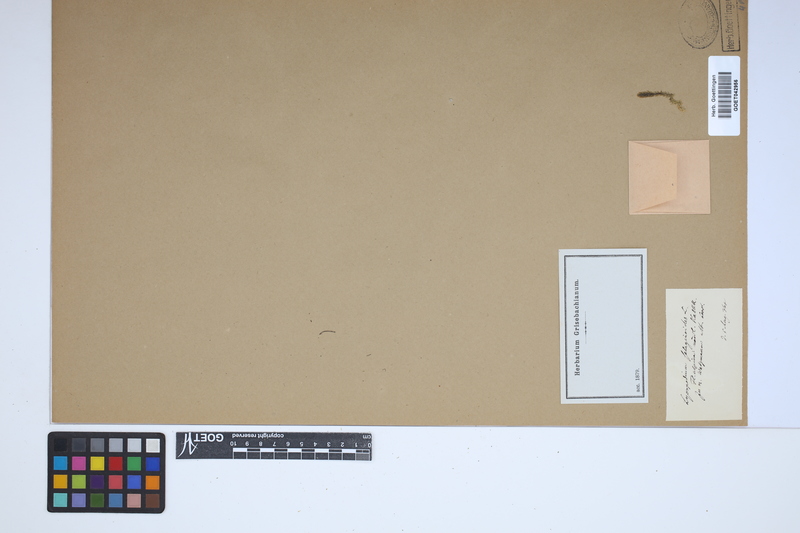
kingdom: Plantae
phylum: Tracheophyta
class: Lycopodiopsida
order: Selaginellales
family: Selaginellaceae
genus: Selaginella
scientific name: Selaginella selaginoides
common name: Prickly mountain-moss
